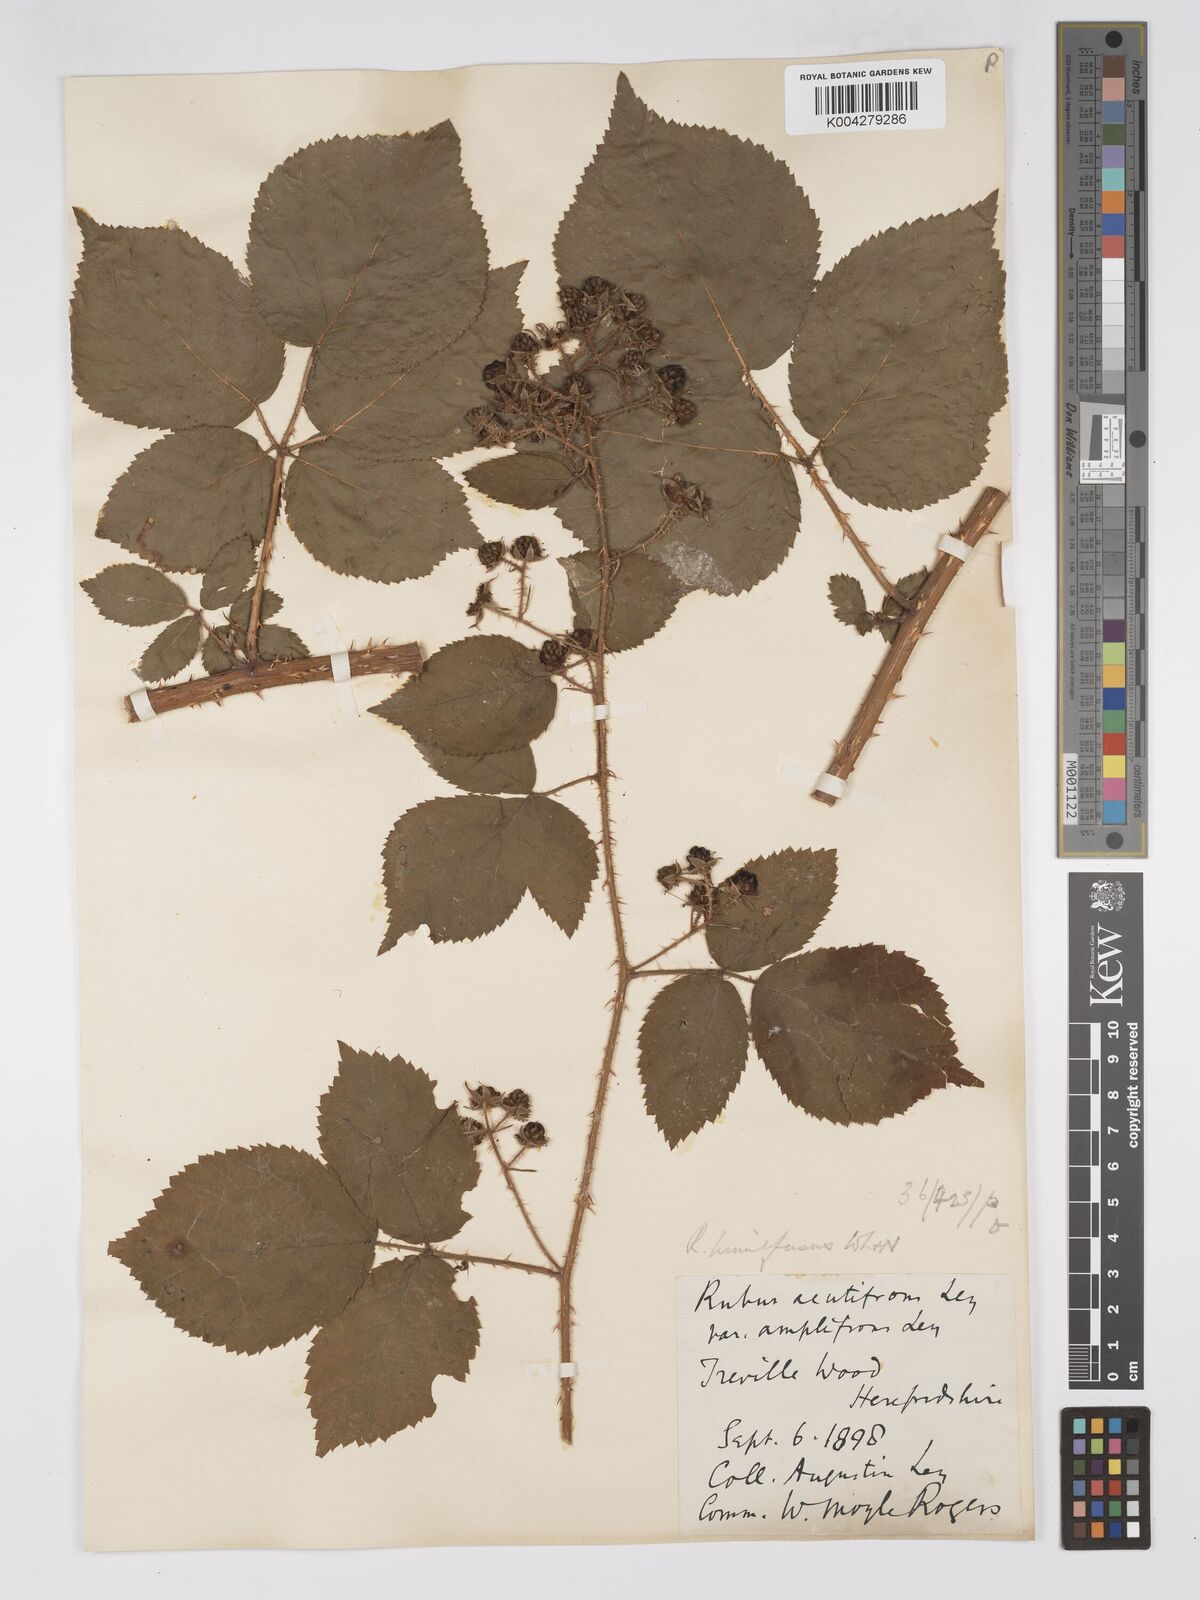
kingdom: Plantae
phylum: Tracheophyta
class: Magnoliopsida
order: Rosales
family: Rosaceae
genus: Rubus
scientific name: Rubus laxatifrons
